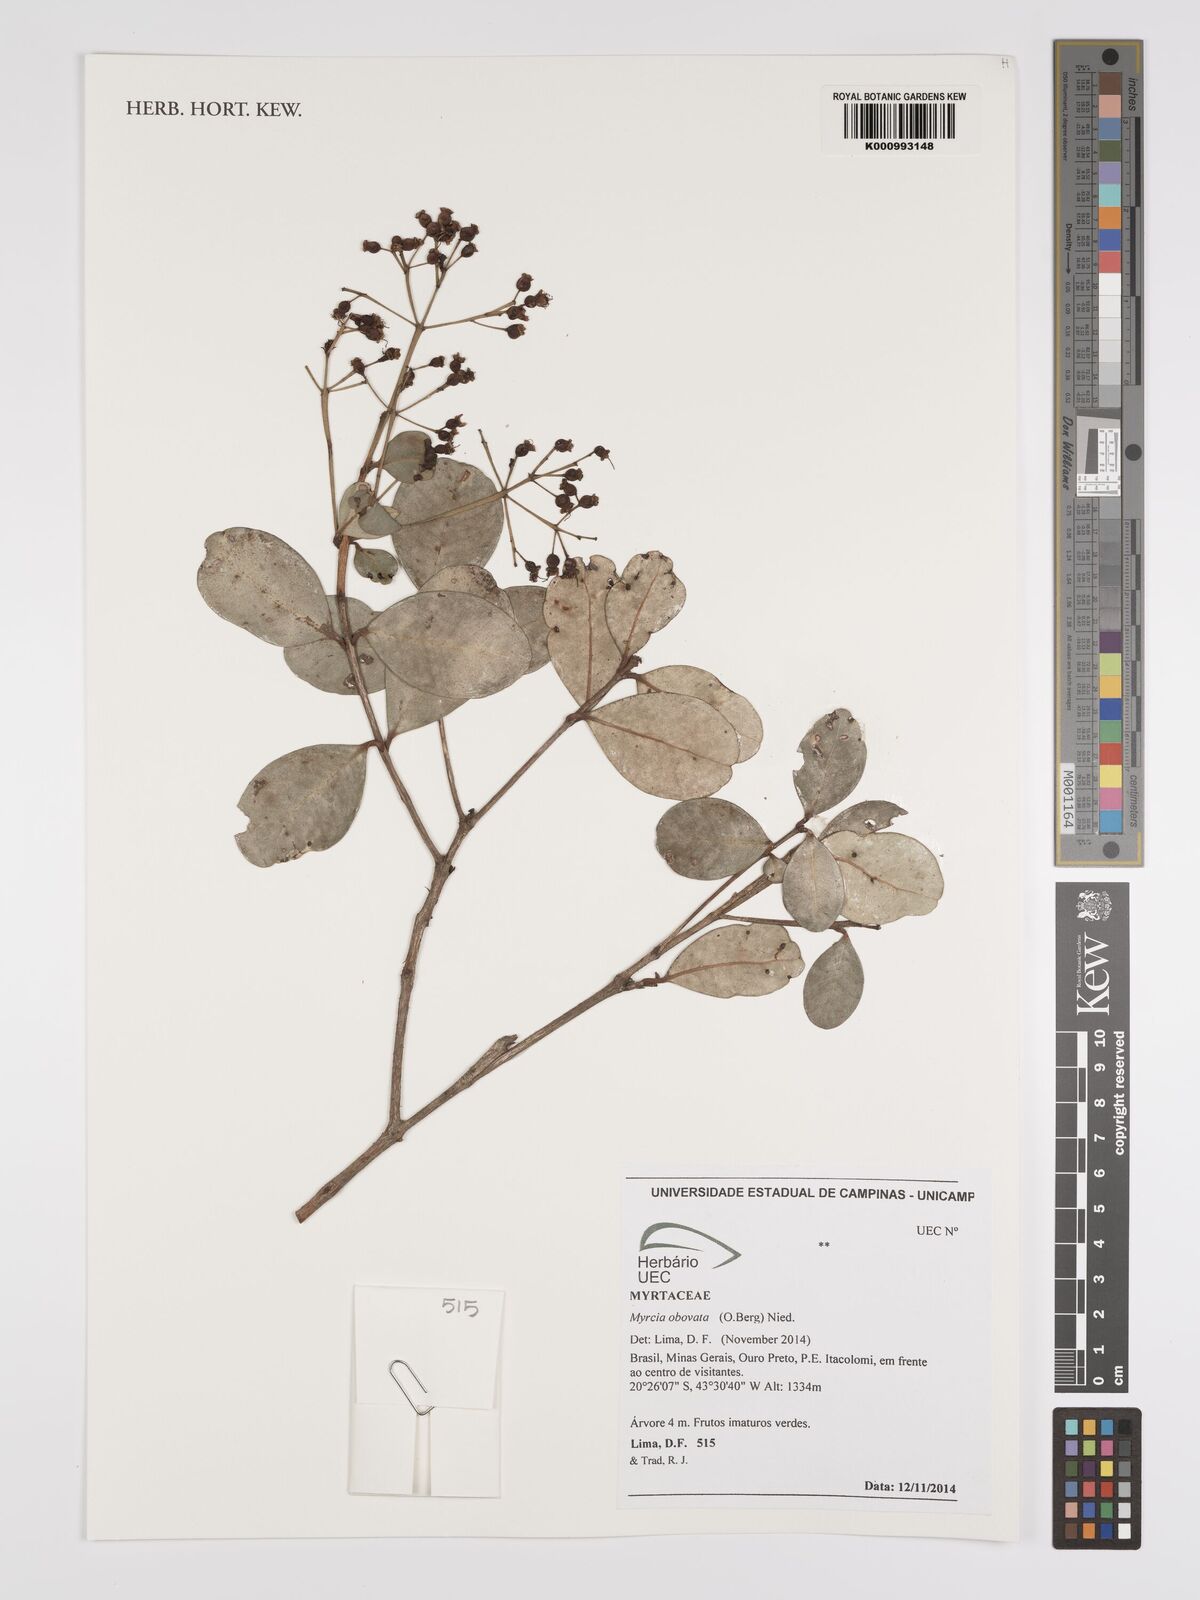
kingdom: Plantae
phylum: Tracheophyta
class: Magnoliopsida
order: Myrtales
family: Myrtaceae
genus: Myrcia
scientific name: Myrcia obovata
